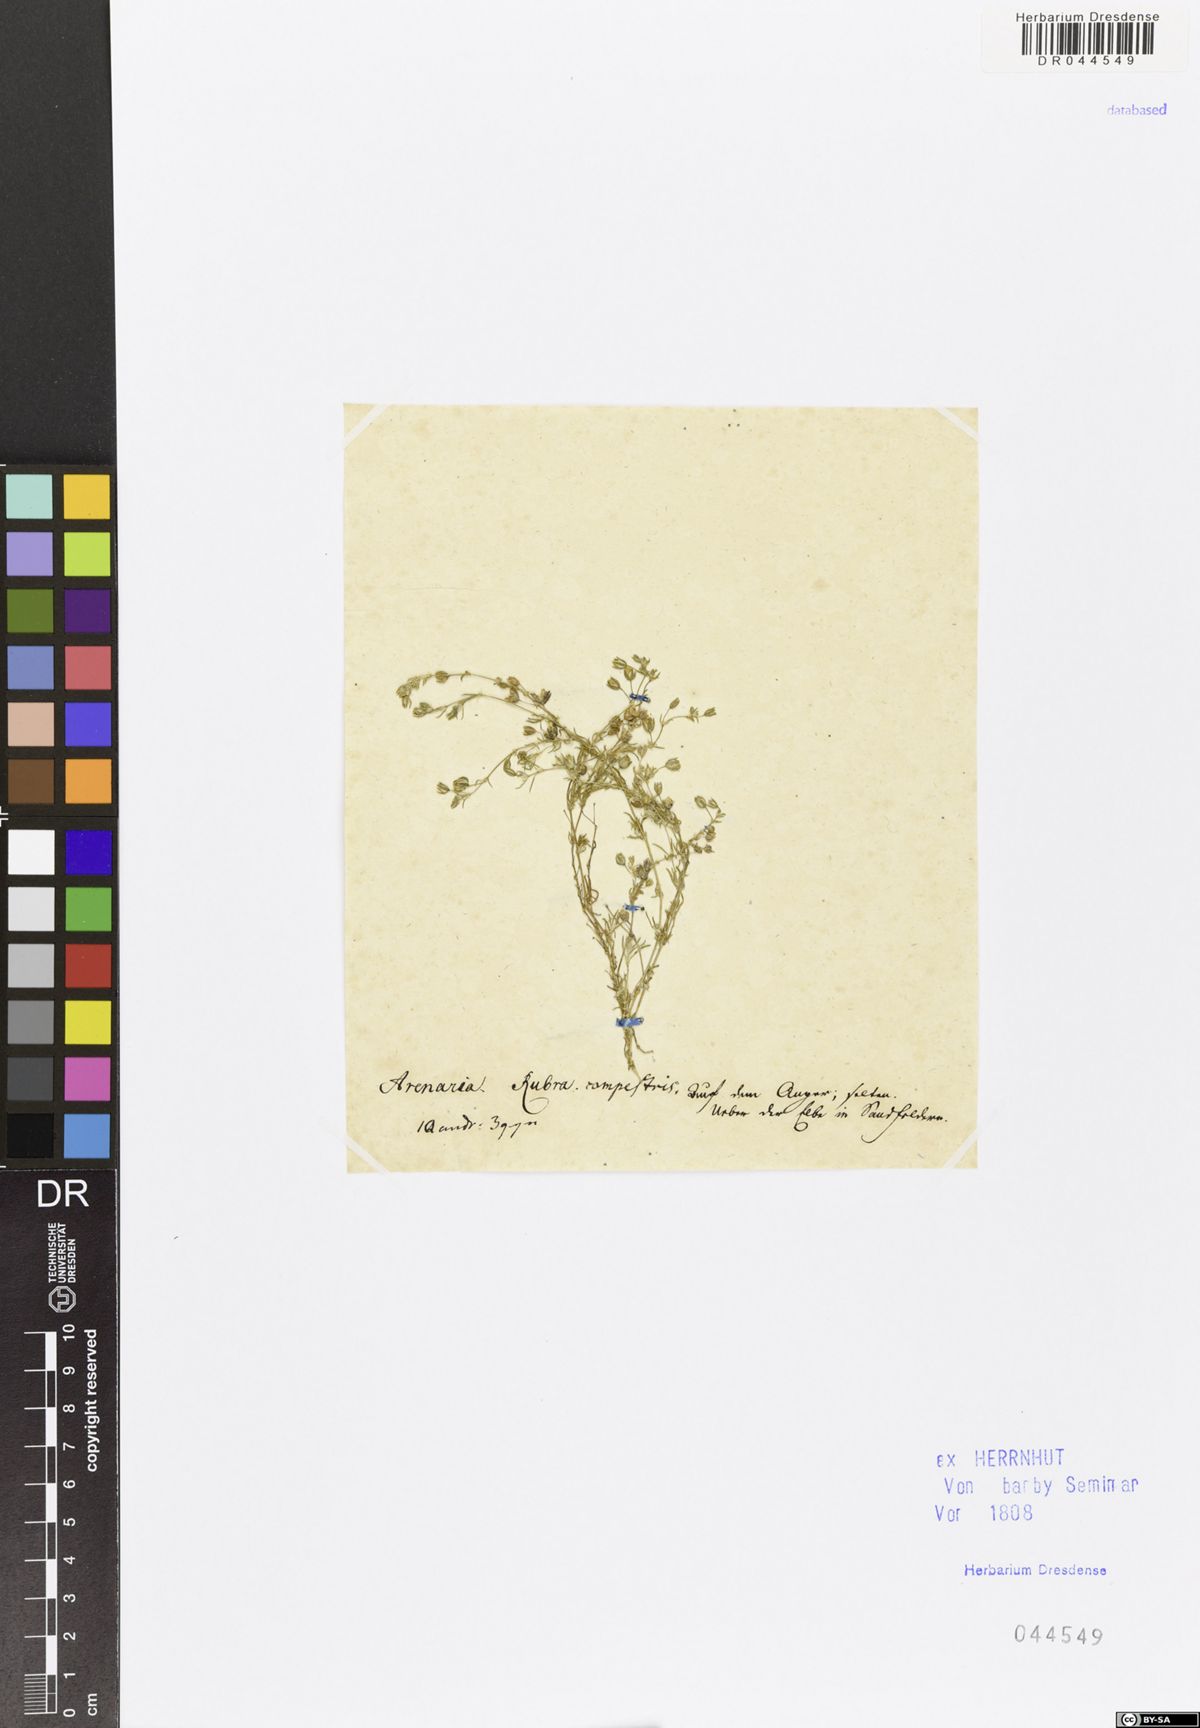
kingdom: Plantae
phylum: Tracheophyta
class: Magnoliopsida
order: Caryophyllales
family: Caryophyllaceae
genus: Spergularia
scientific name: Spergularia rubra
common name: Red sand-spurrey
